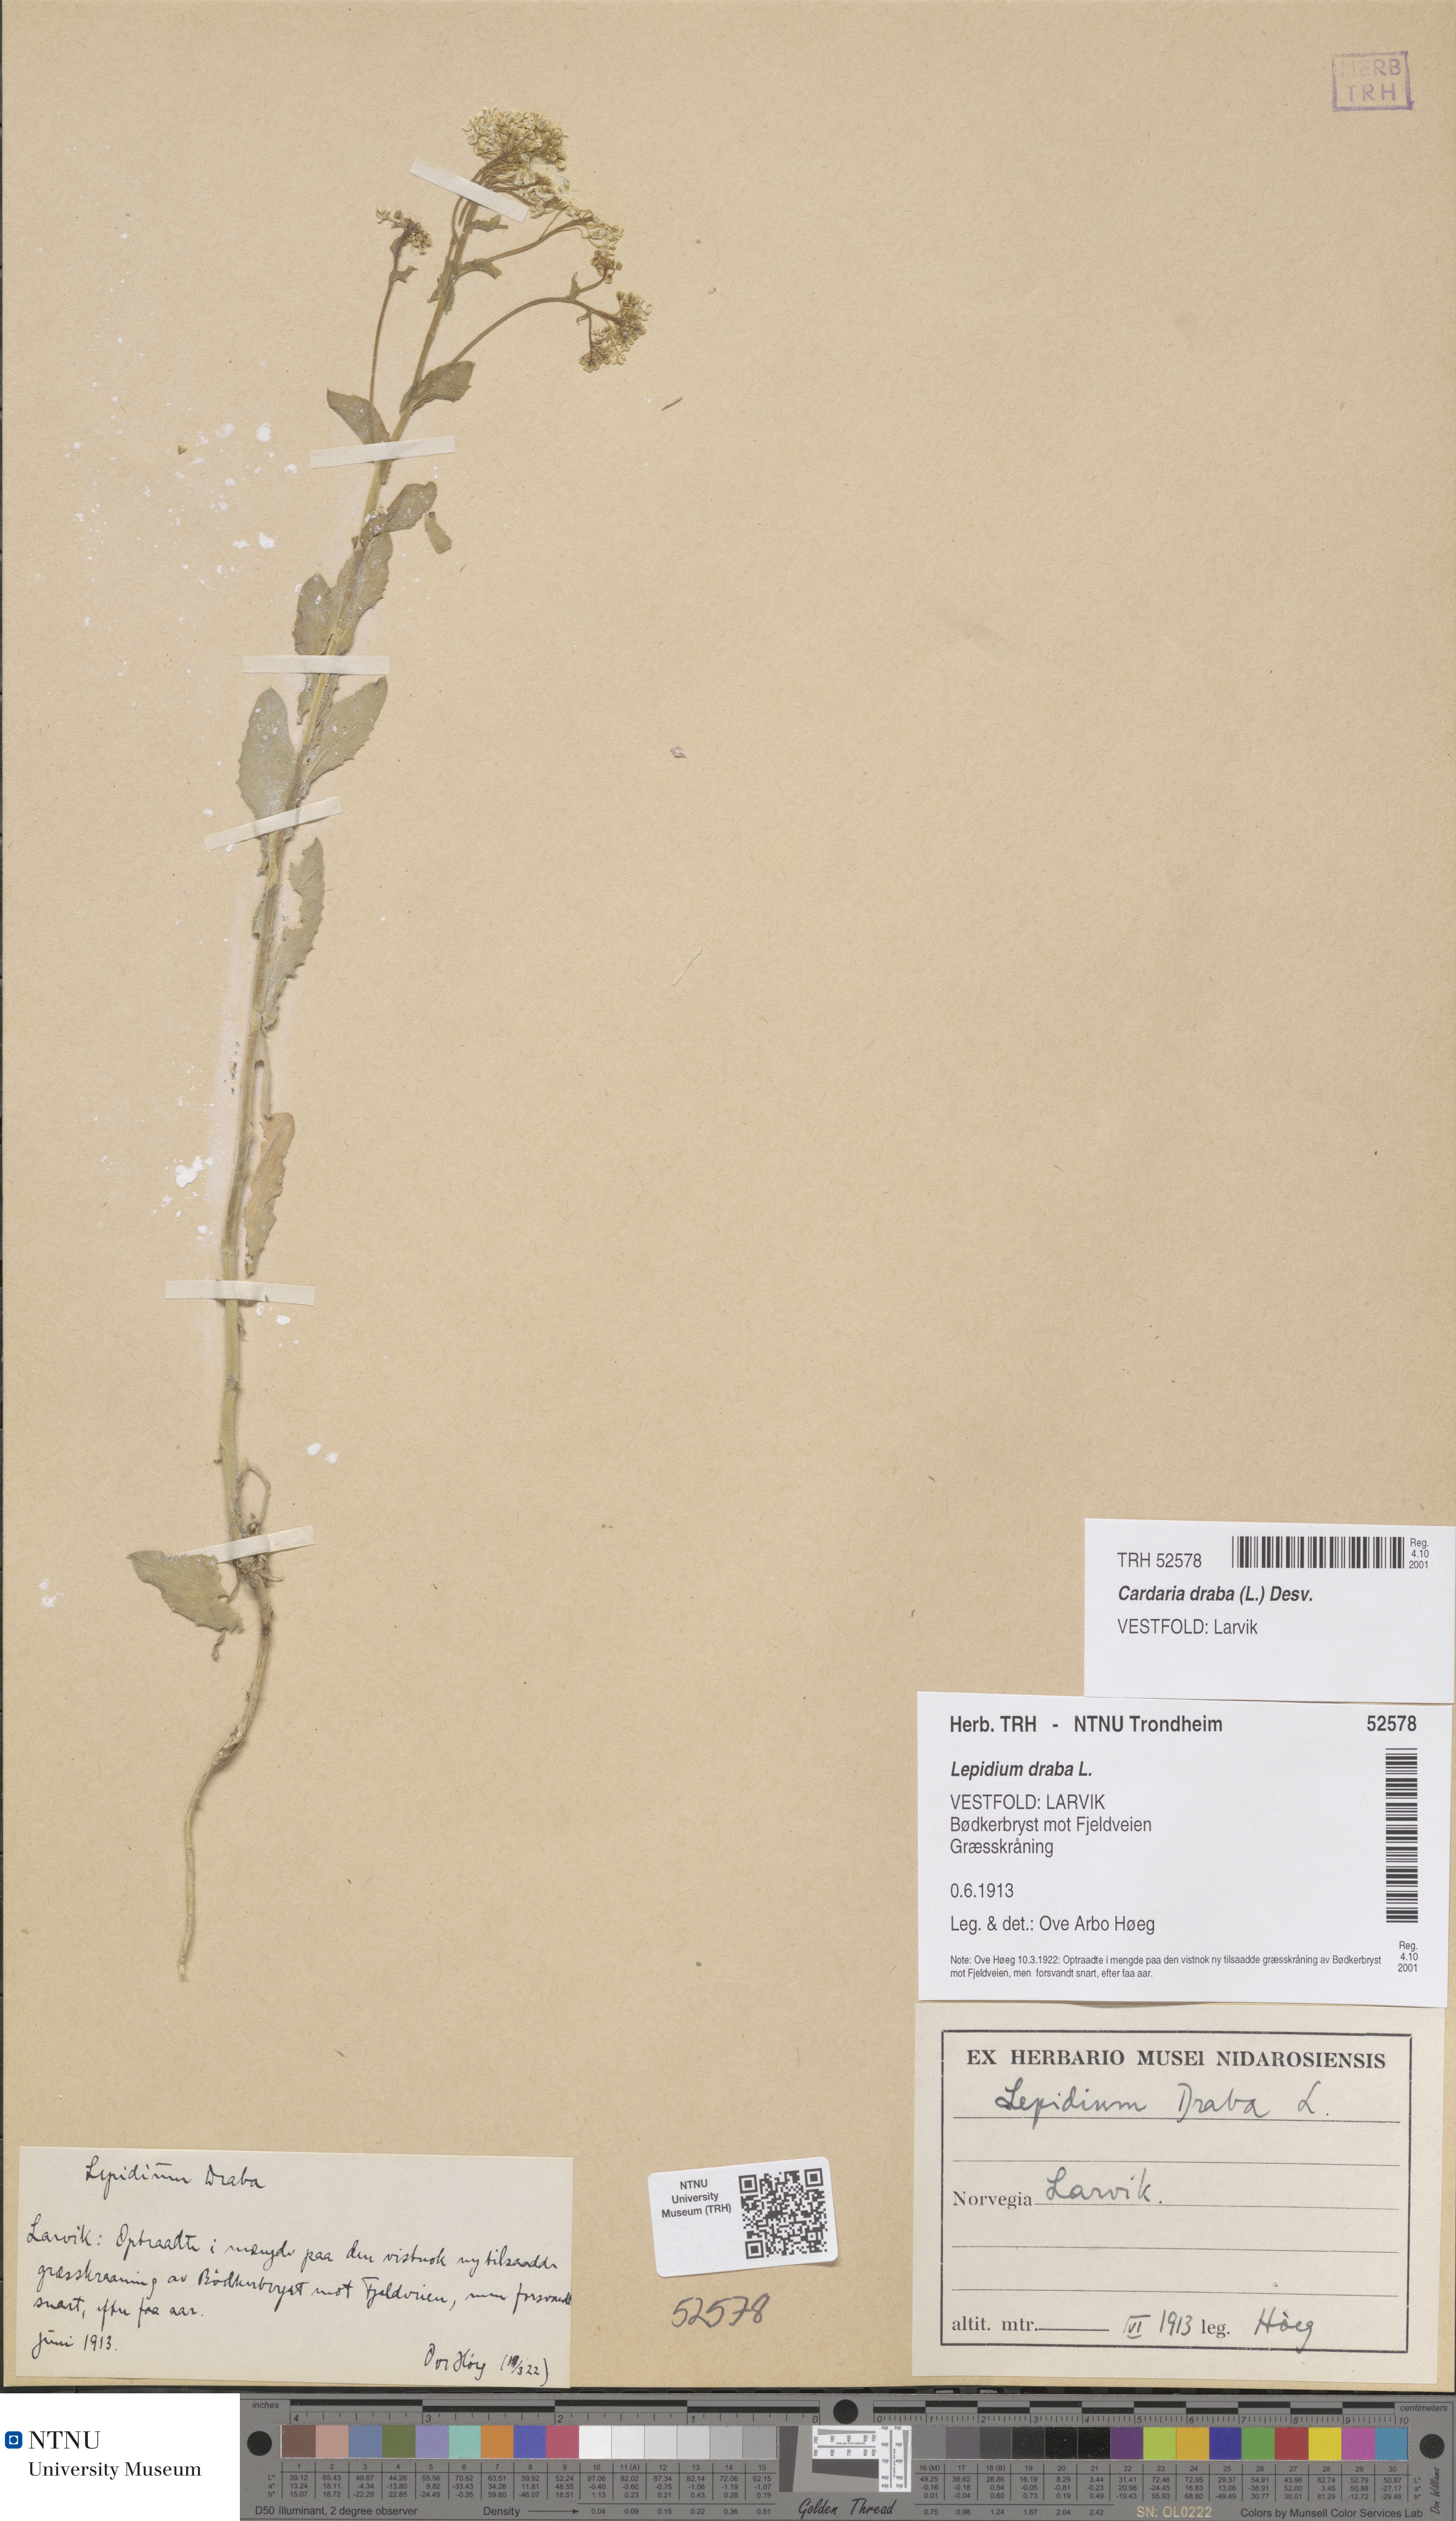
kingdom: Plantae
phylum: Tracheophyta
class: Magnoliopsida
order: Brassicales
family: Brassicaceae
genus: Lepidium
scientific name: Lepidium draba
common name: Hoary cress
